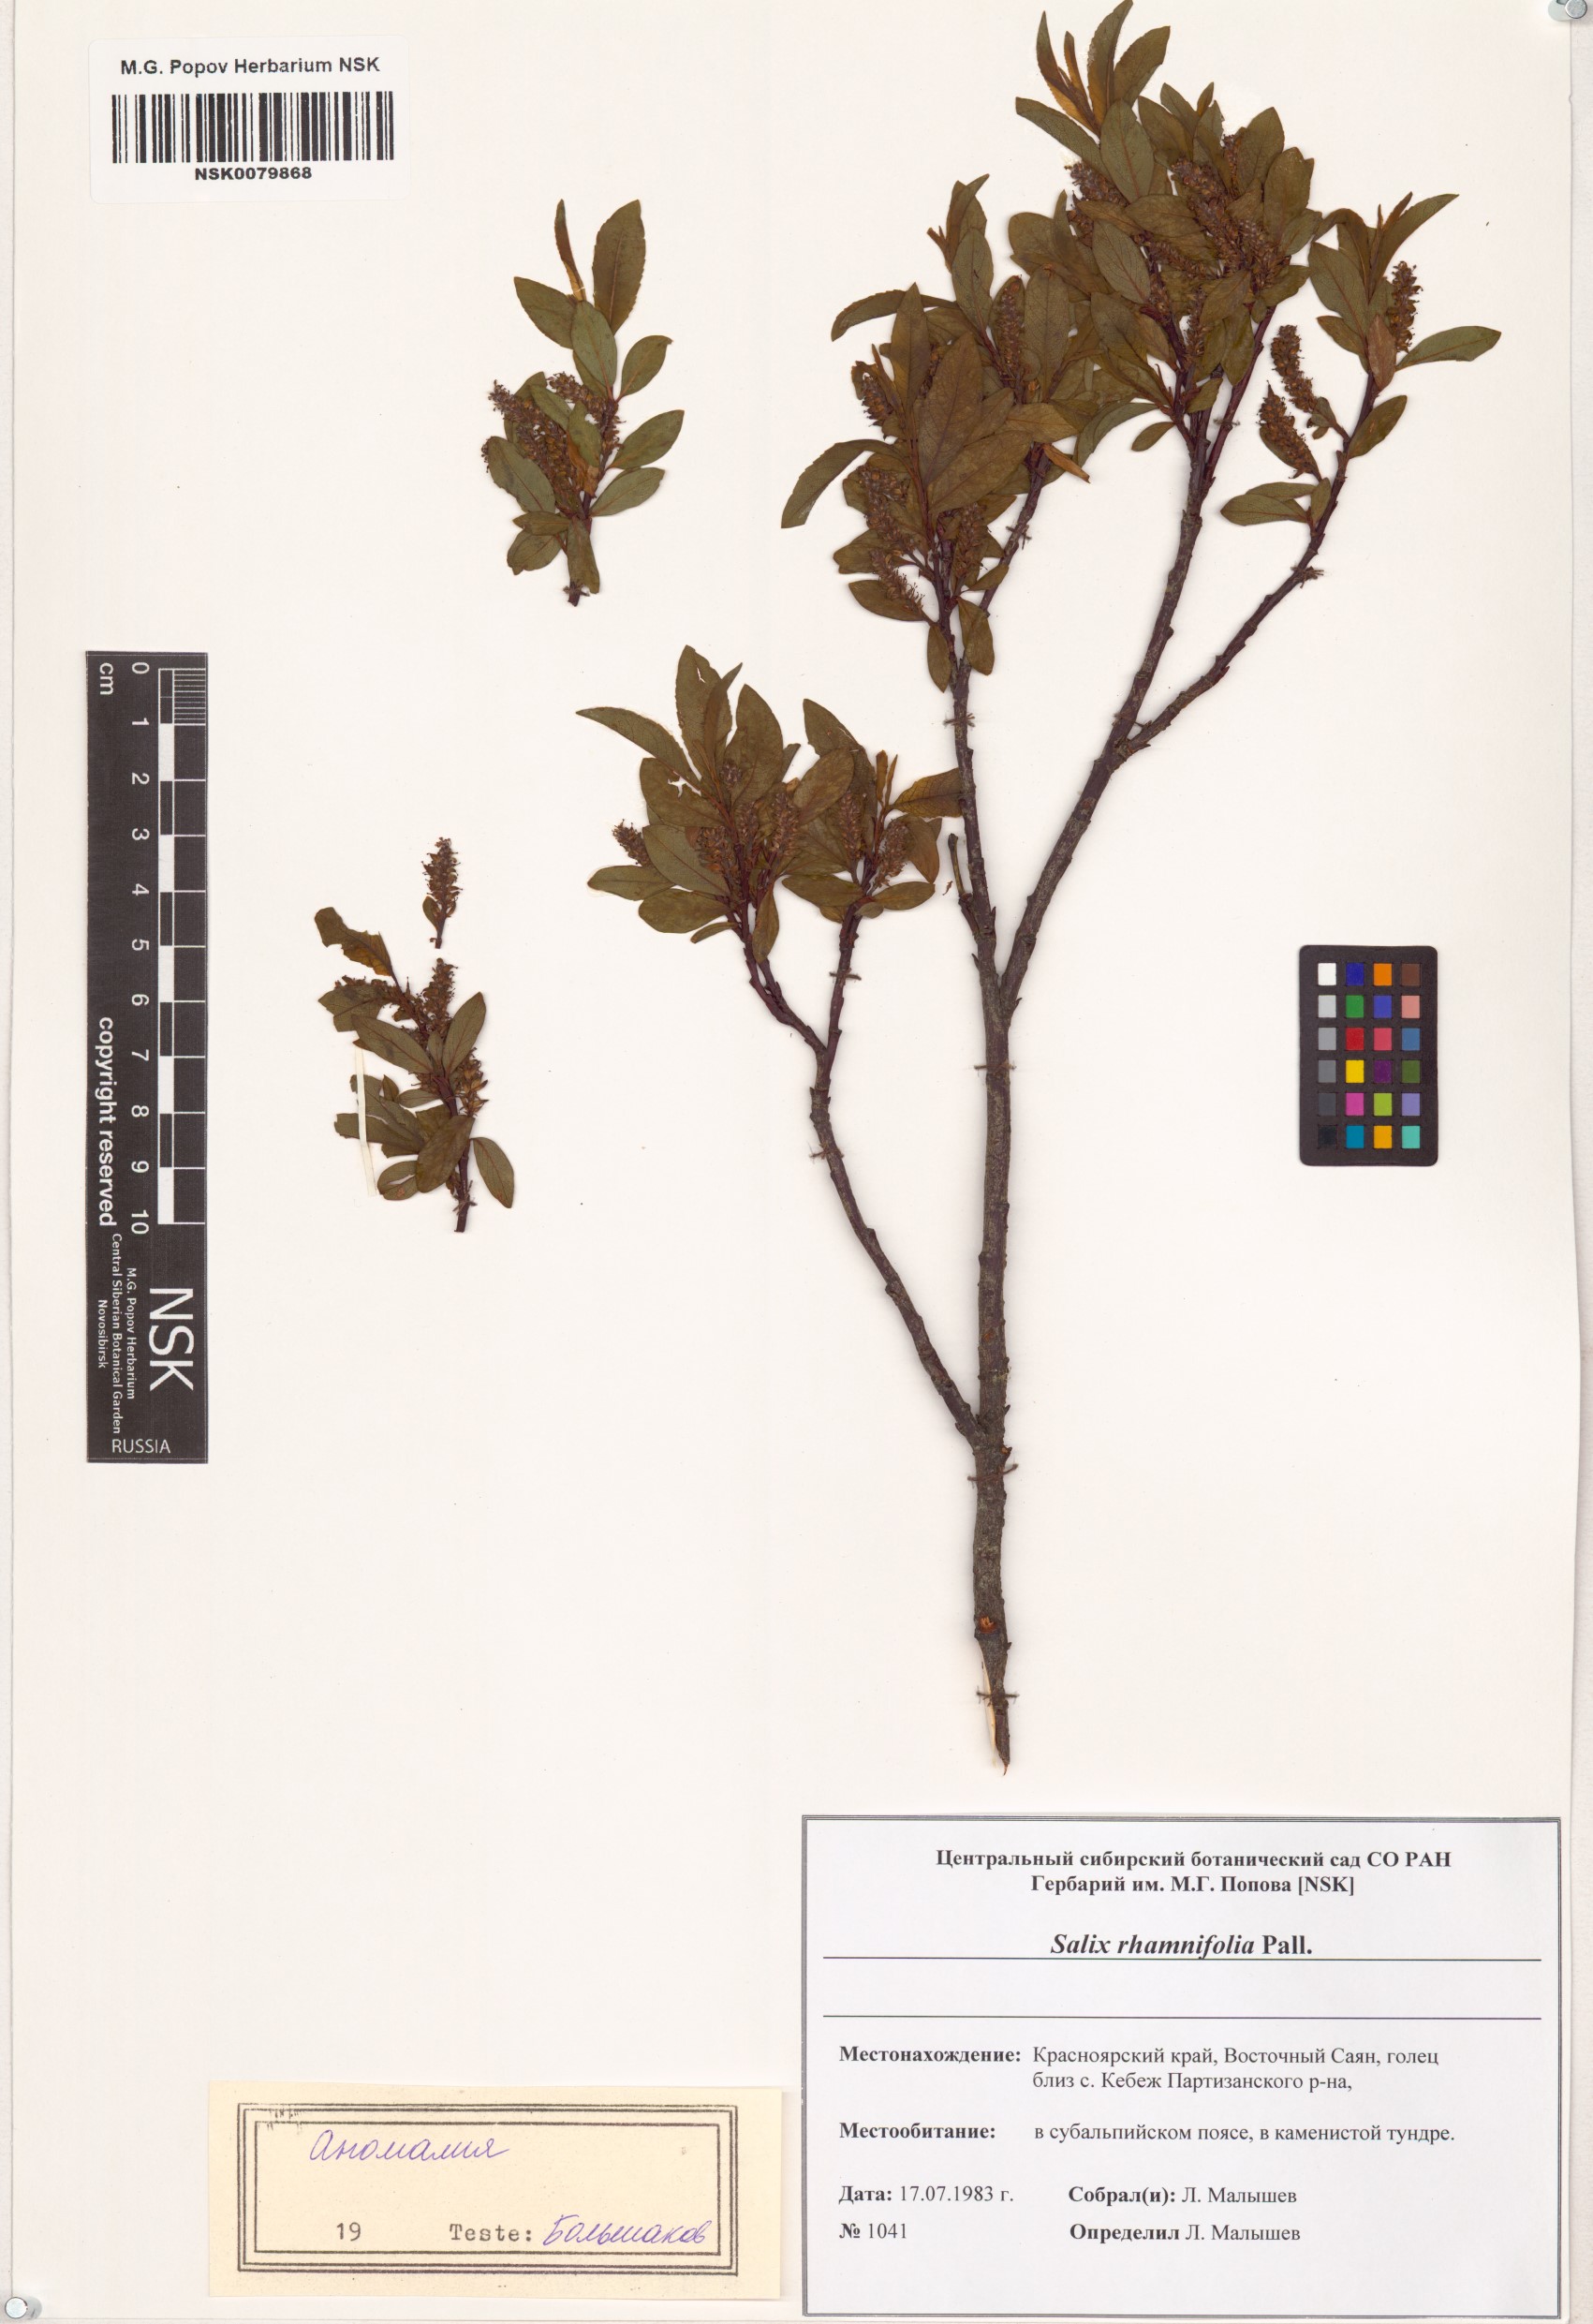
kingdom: Plantae
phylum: Tracheophyta
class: Magnoliopsida
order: Malpighiales
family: Salicaceae
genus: Salix
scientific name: Salix rhamnifolia
